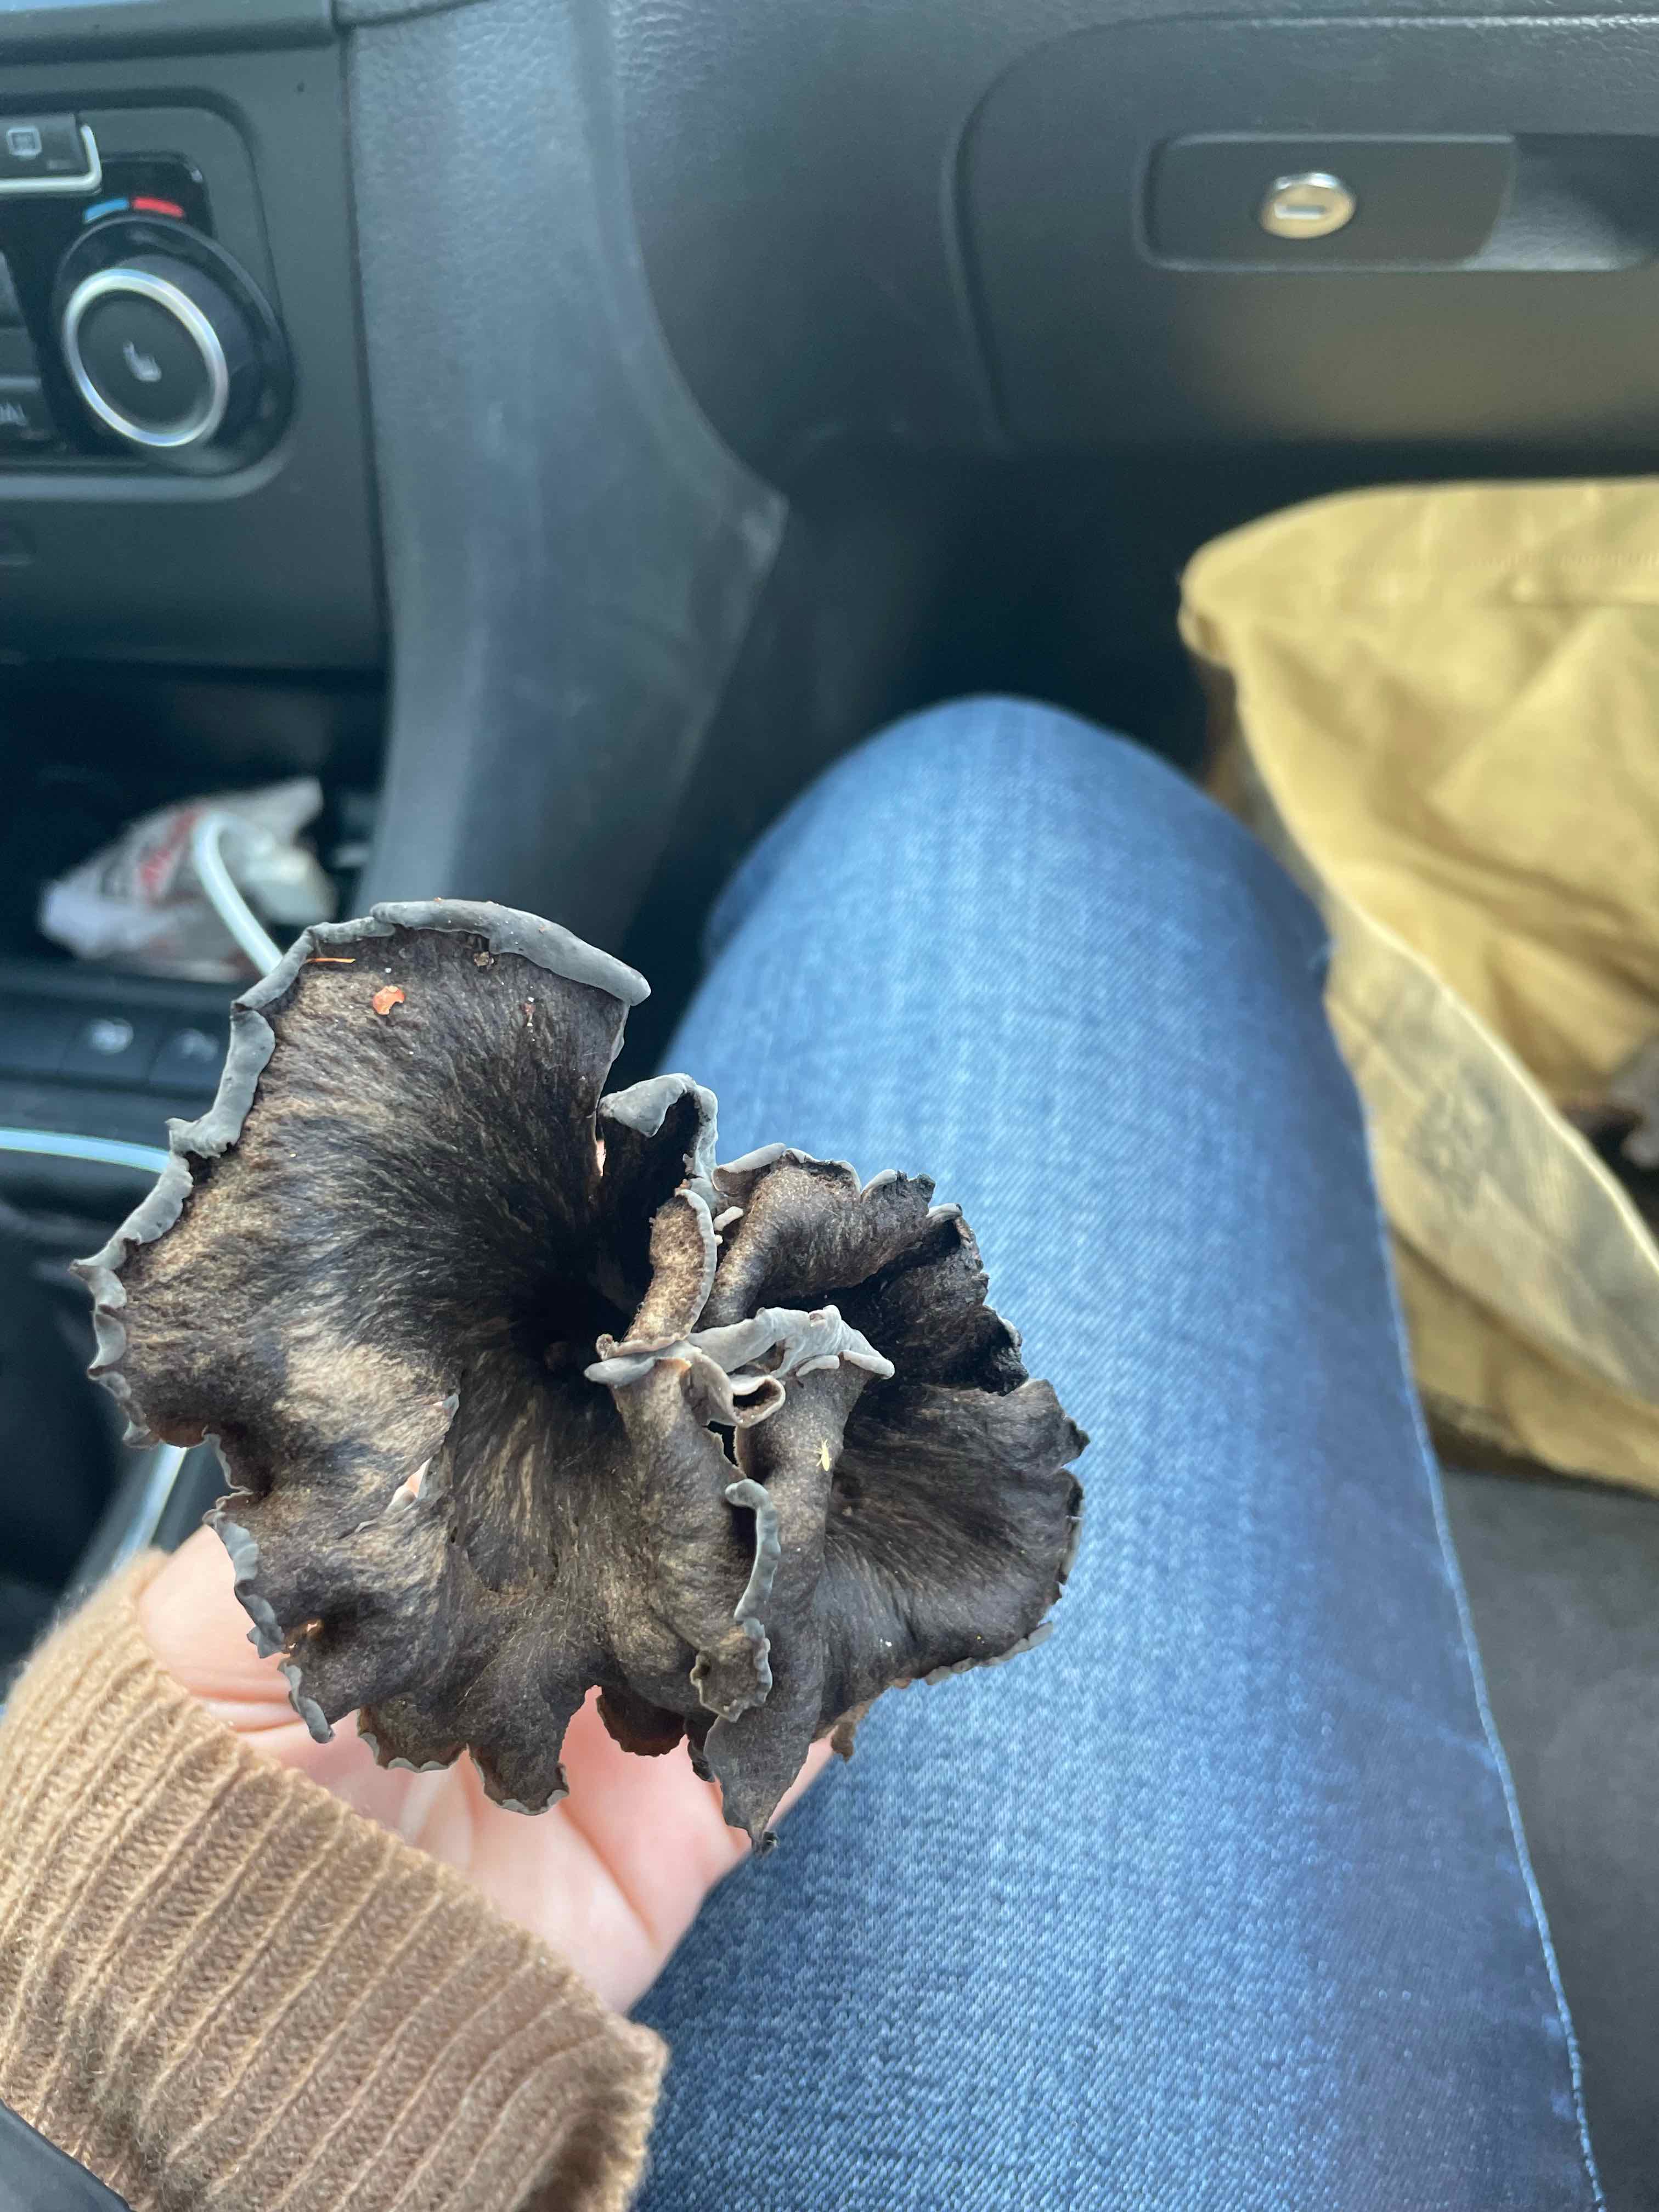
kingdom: Fungi
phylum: Basidiomycota
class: Agaricomycetes
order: Cantharellales
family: Hydnaceae
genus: Craterellus
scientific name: Craterellus cornucopioides
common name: trompetsvamp
